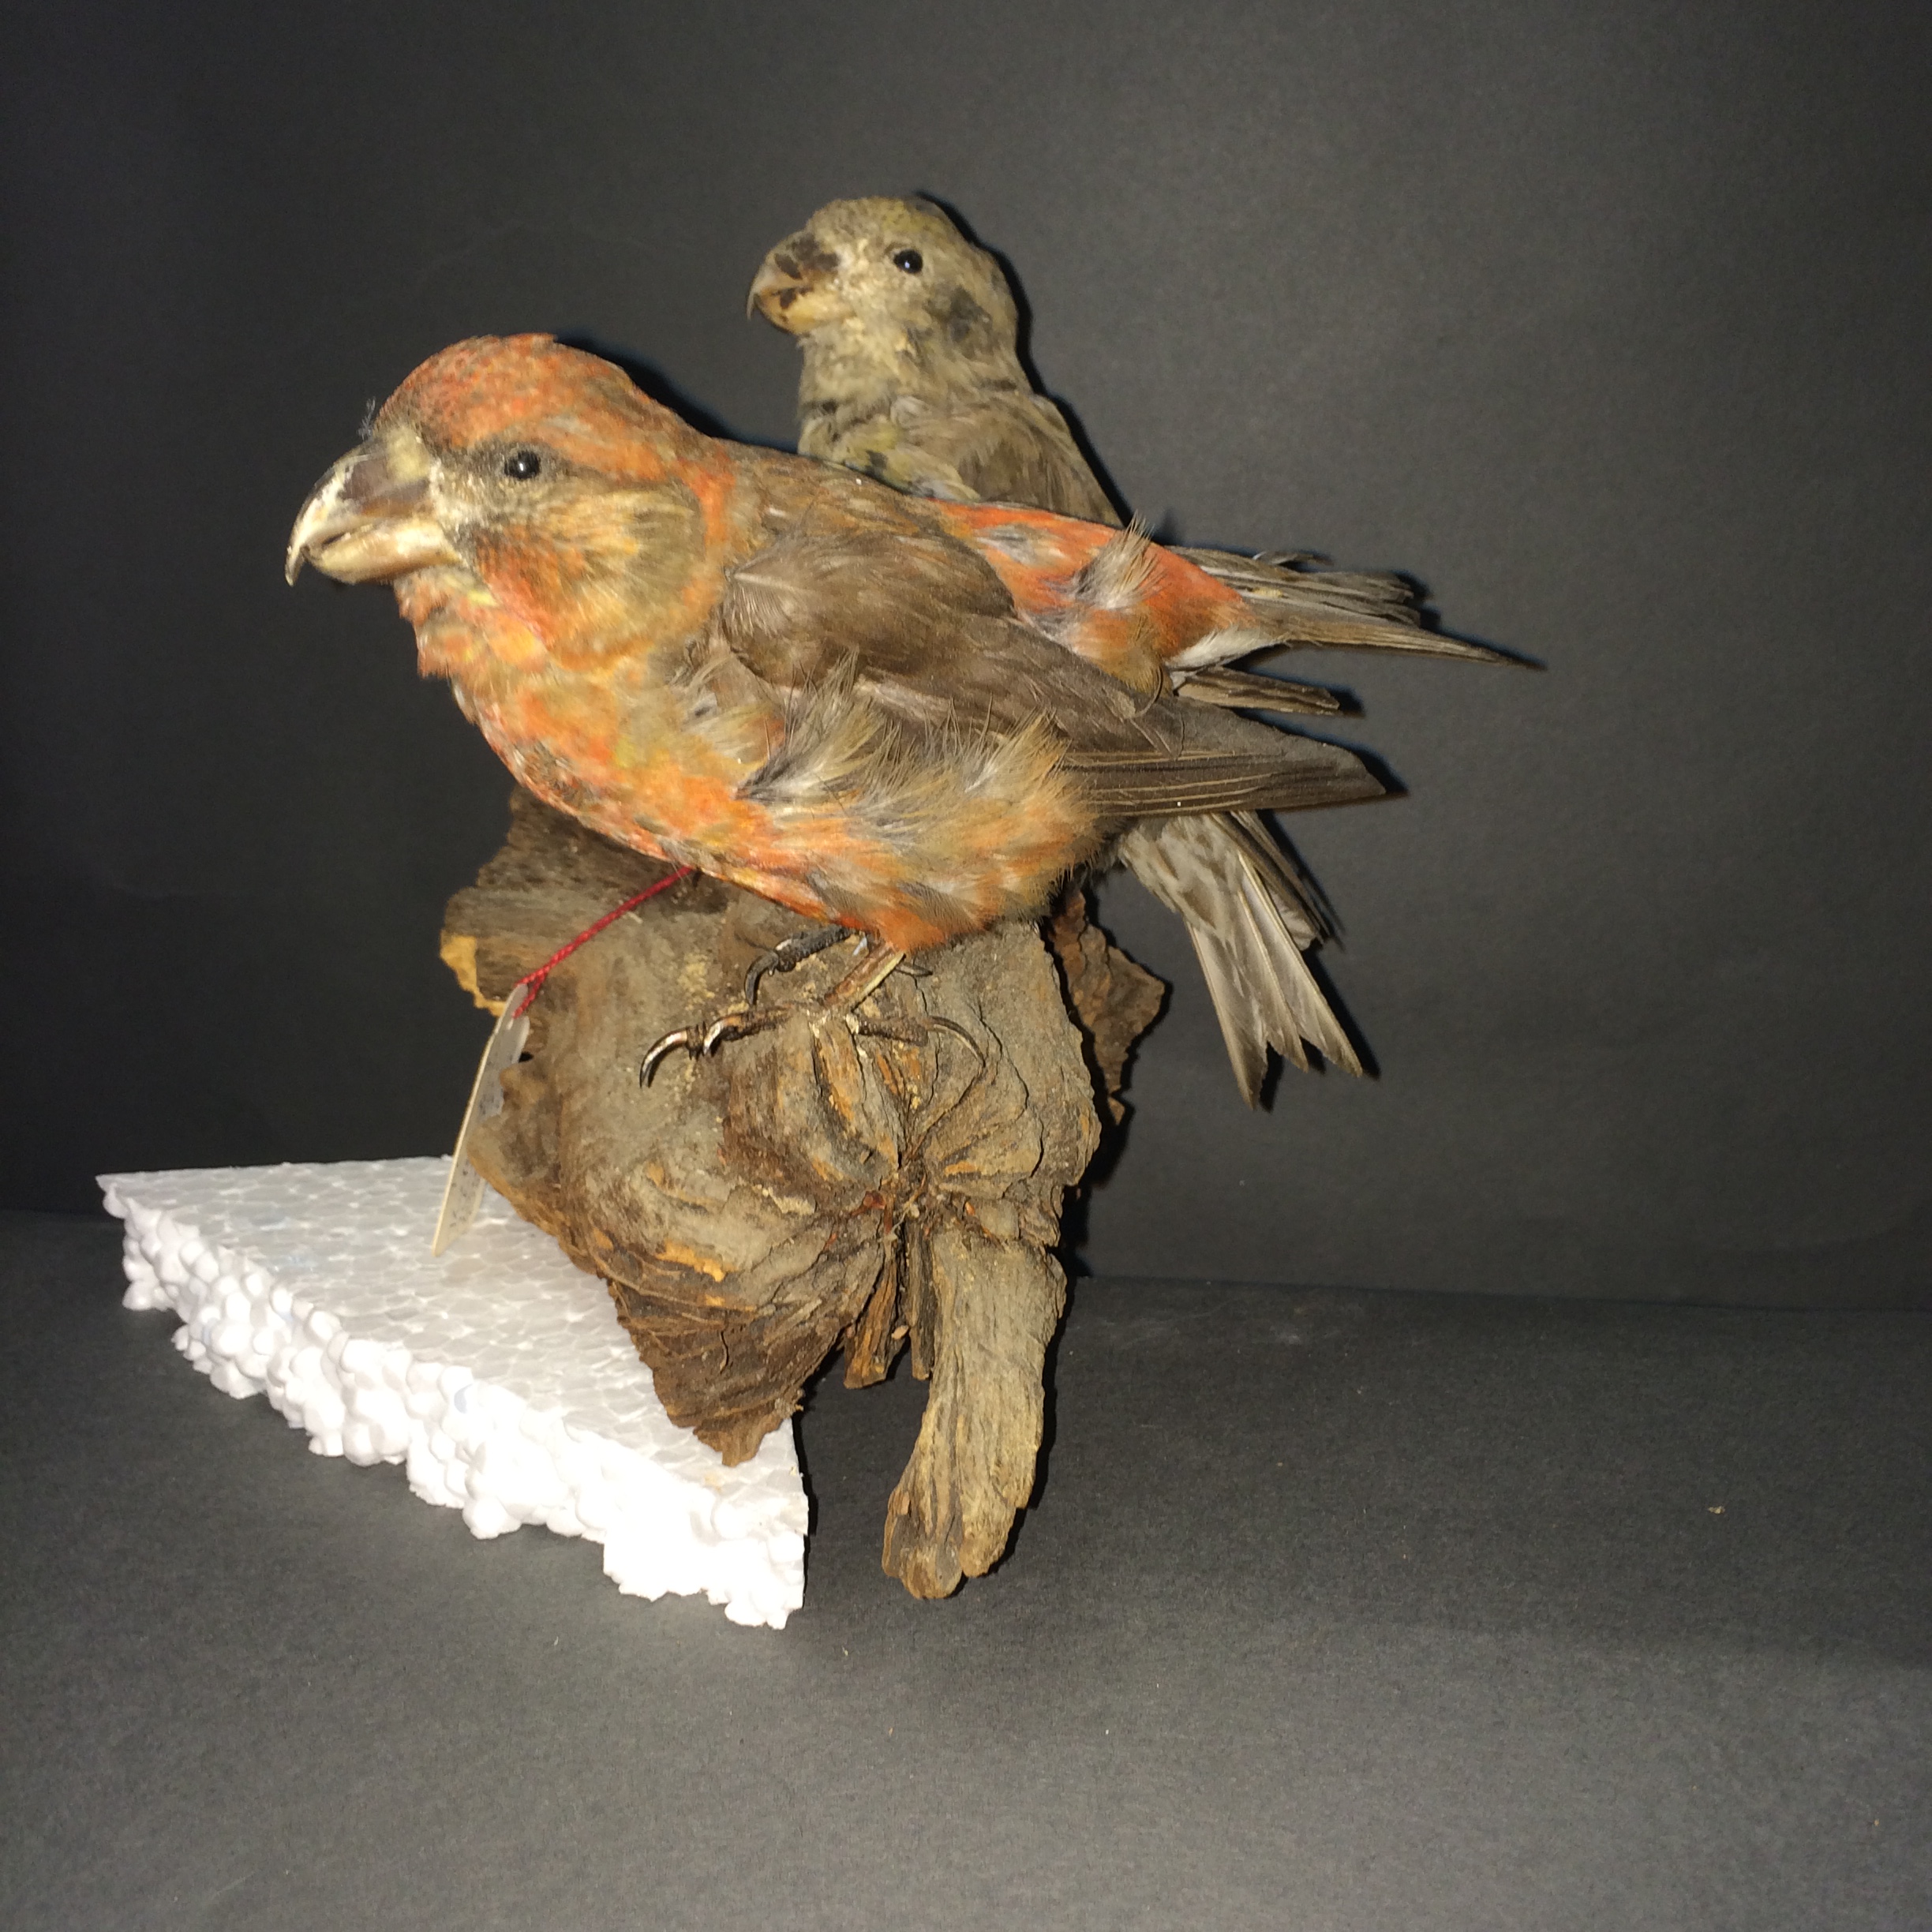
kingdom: Animalia
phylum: Chordata
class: Aves
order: Passeriformes
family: Fringillidae
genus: Loxia
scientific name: Loxia pytyopsittacus
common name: Parrot crossbill
